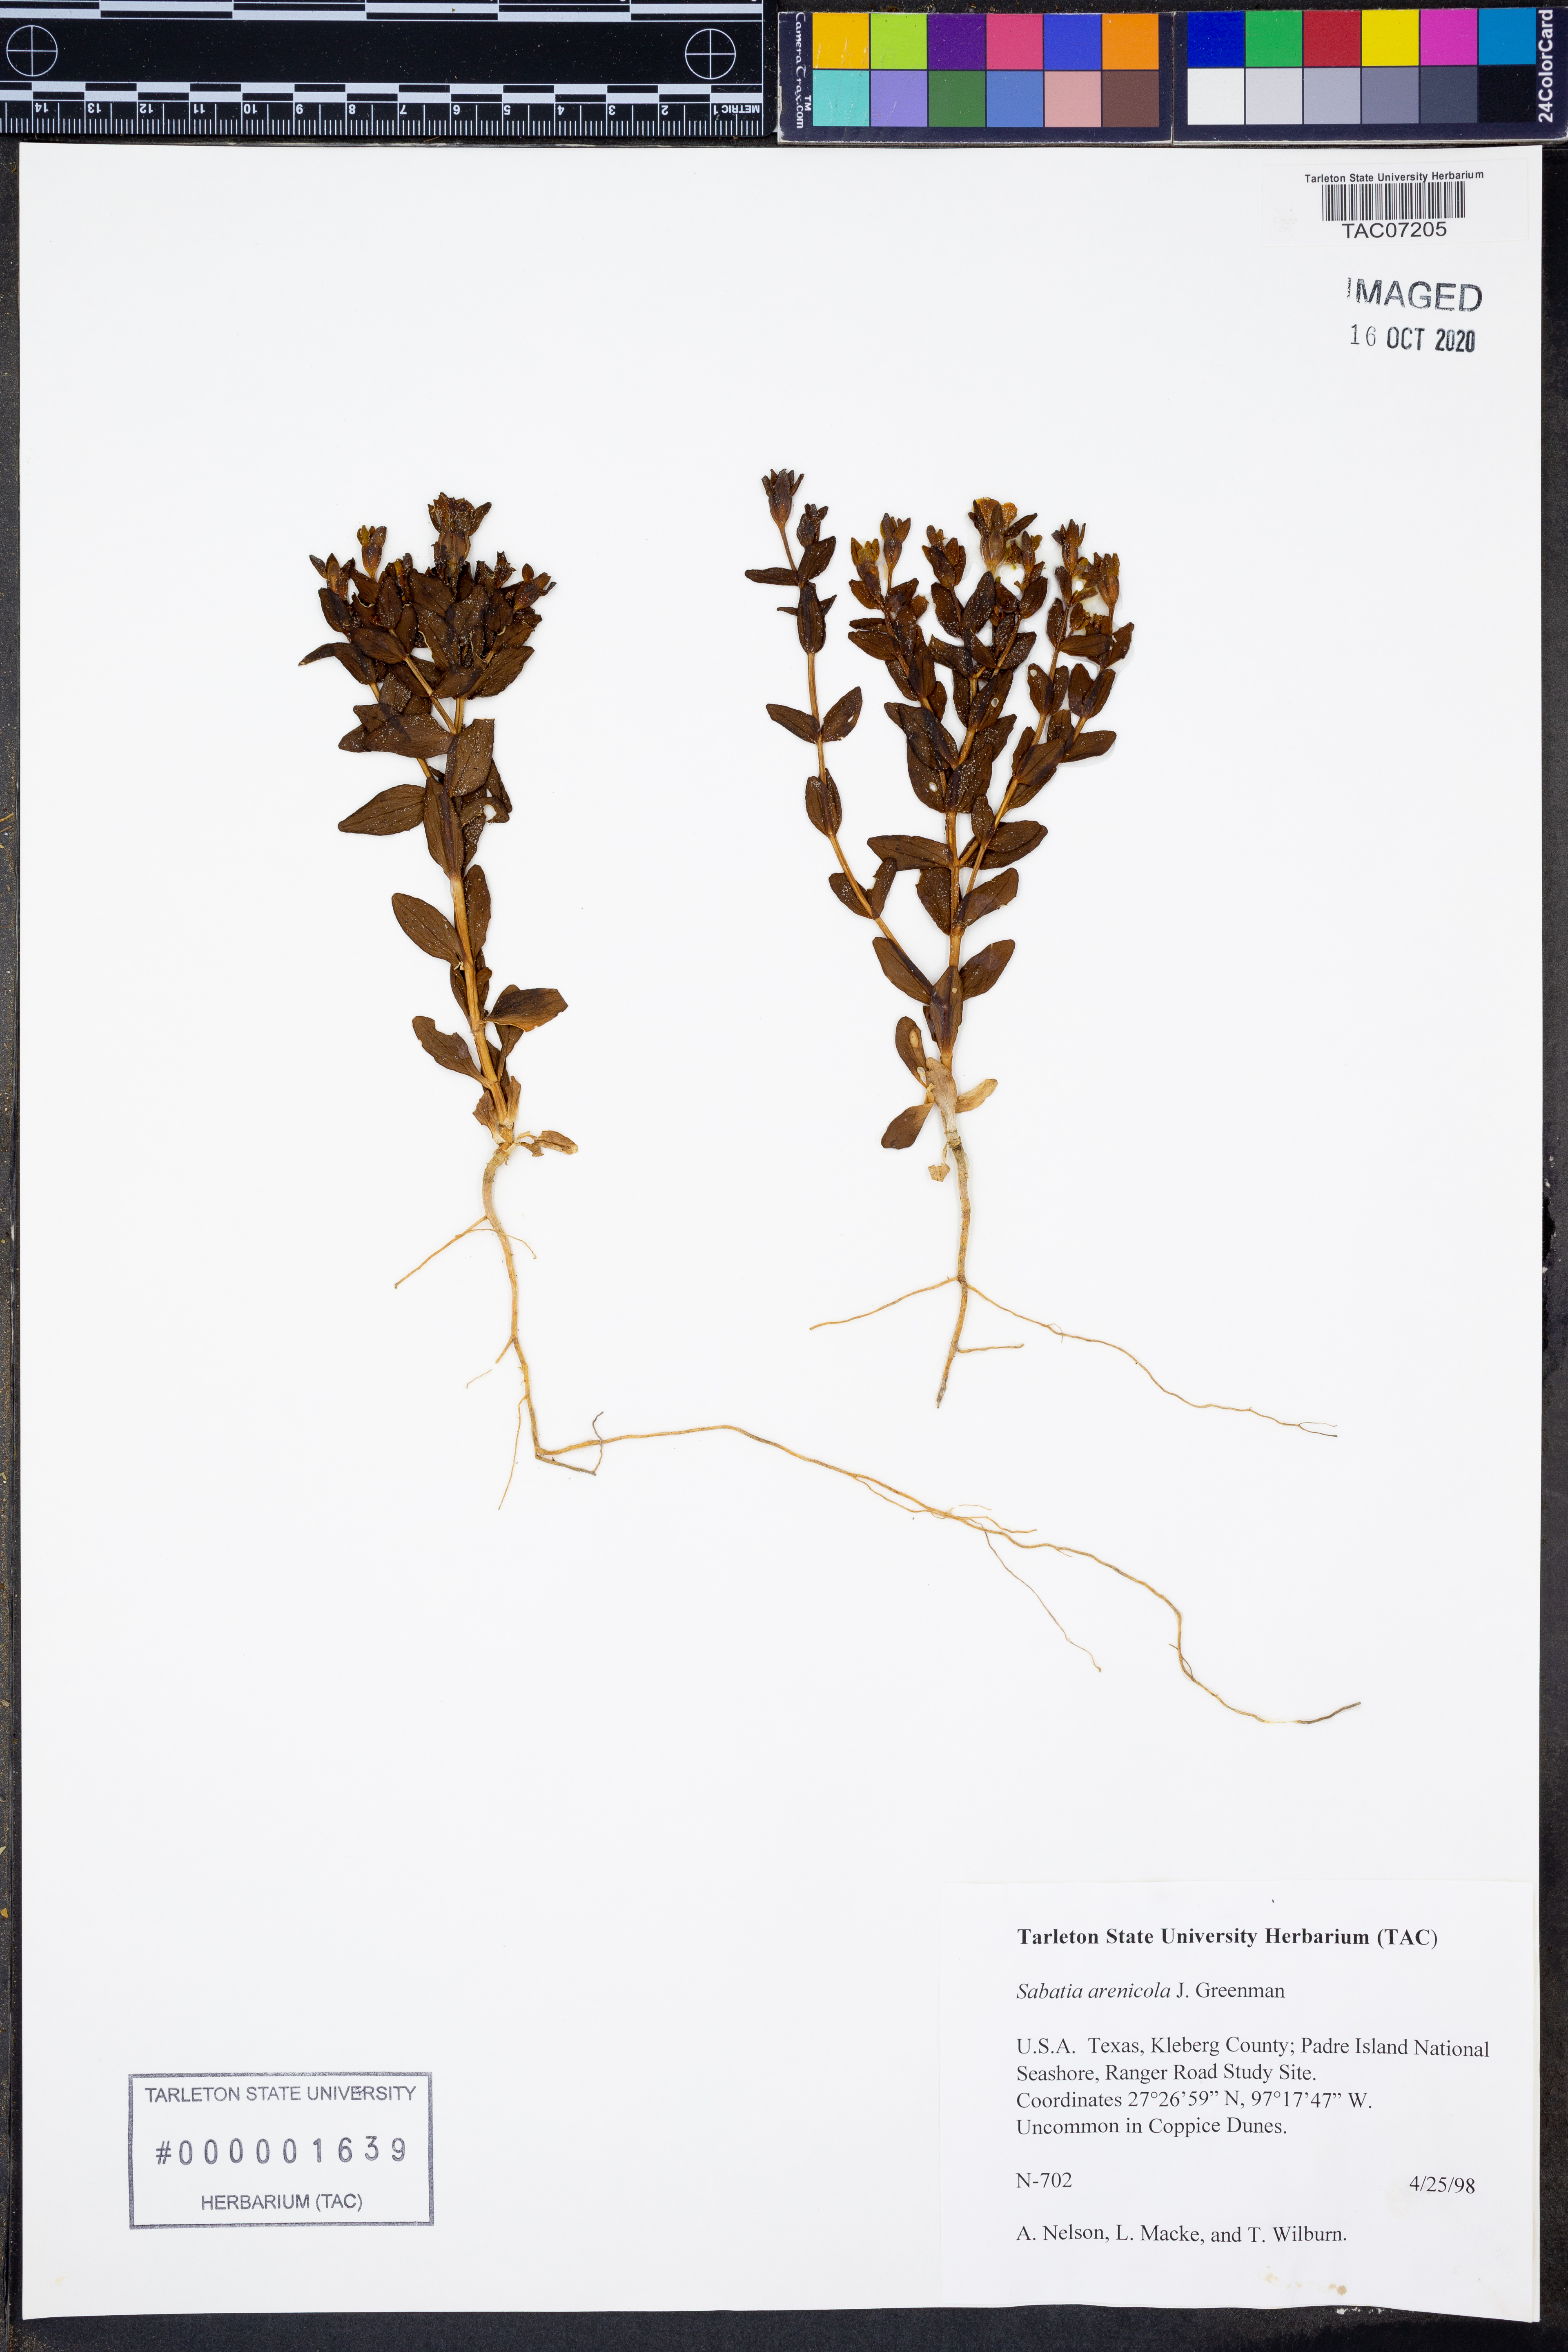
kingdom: Plantae
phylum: Tracheophyta
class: Magnoliopsida
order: Gentianales
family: Gentianaceae
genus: Sabatia
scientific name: Sabatia arenicola
